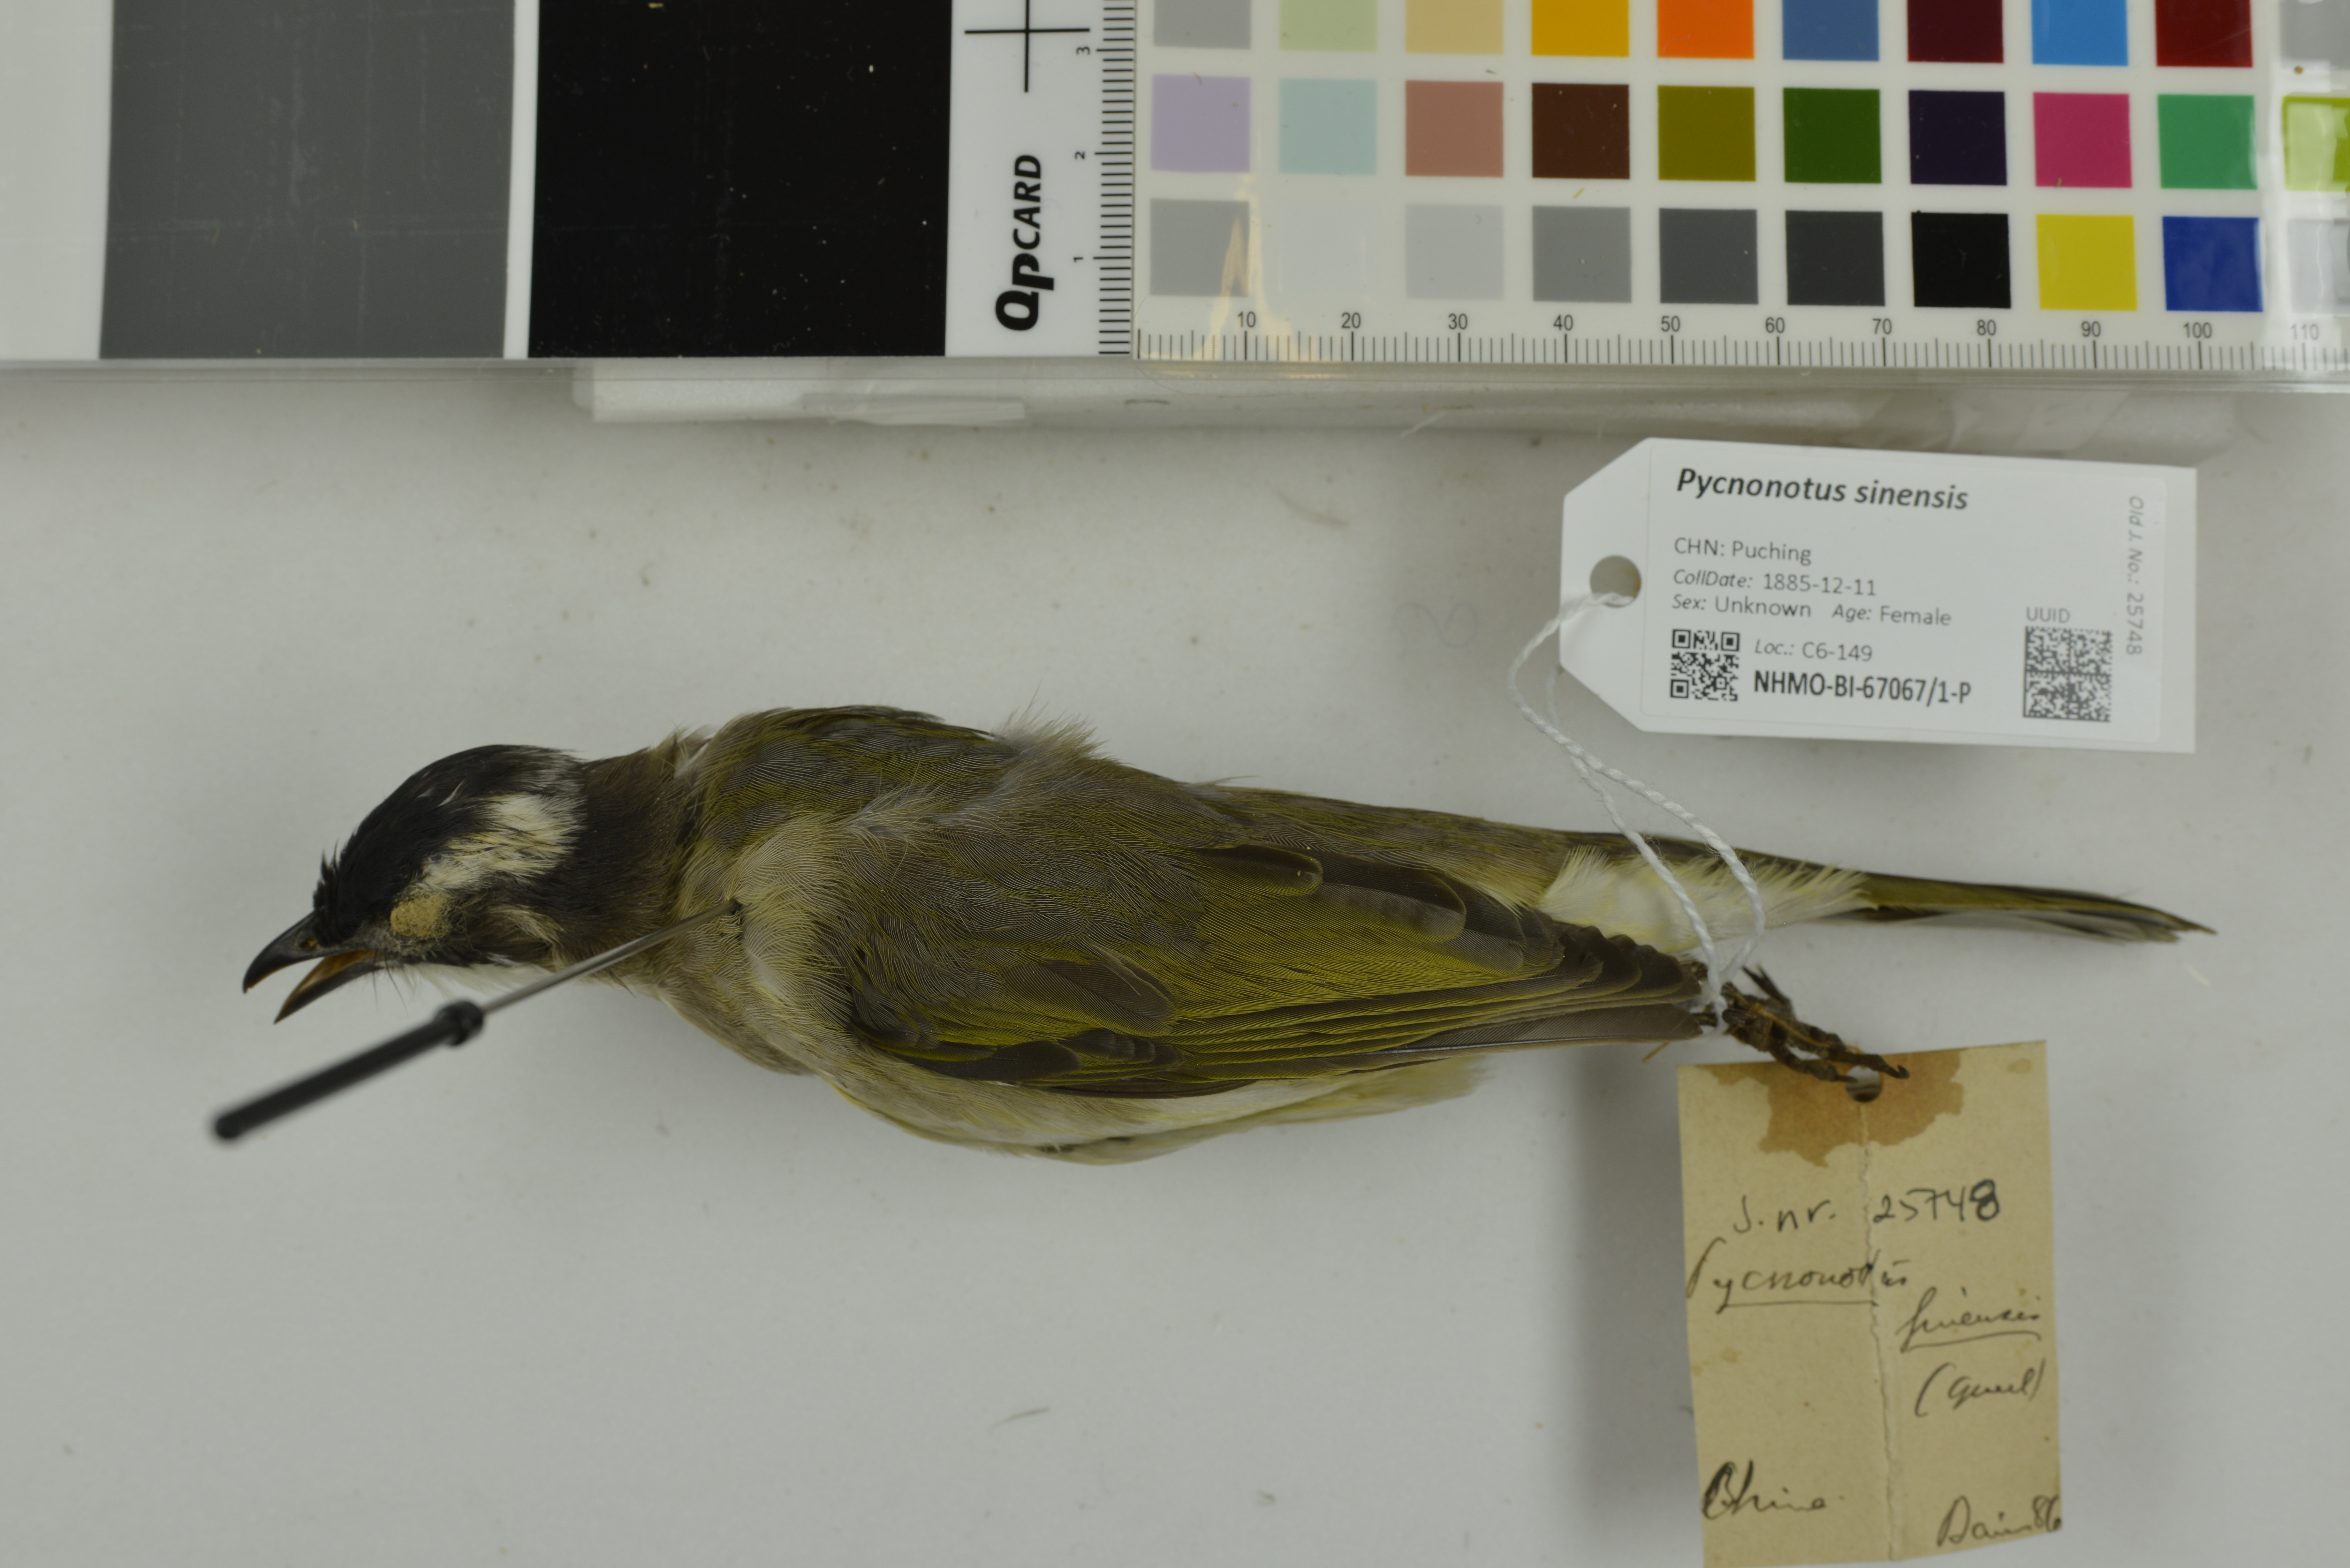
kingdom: Animalia
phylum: Chordata
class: Aves
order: Passeriformes
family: Pycnonotidae
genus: Pycnonotus
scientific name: Pycnonotus sinensis
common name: Light-vented bulbul
